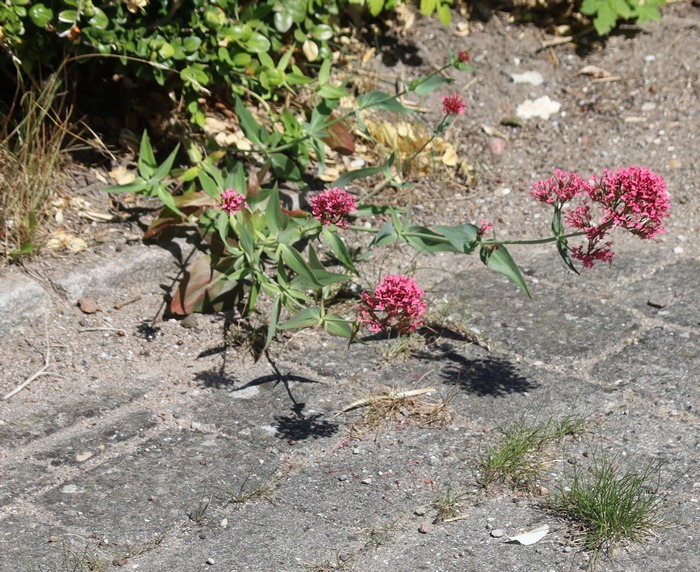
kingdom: Plantae
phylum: Tracheophyta
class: Magnoliopsida
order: Dipsacales
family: Caprifoliaceae
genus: Centranthus
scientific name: Centranthus ruber
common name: Sporebaldrian
